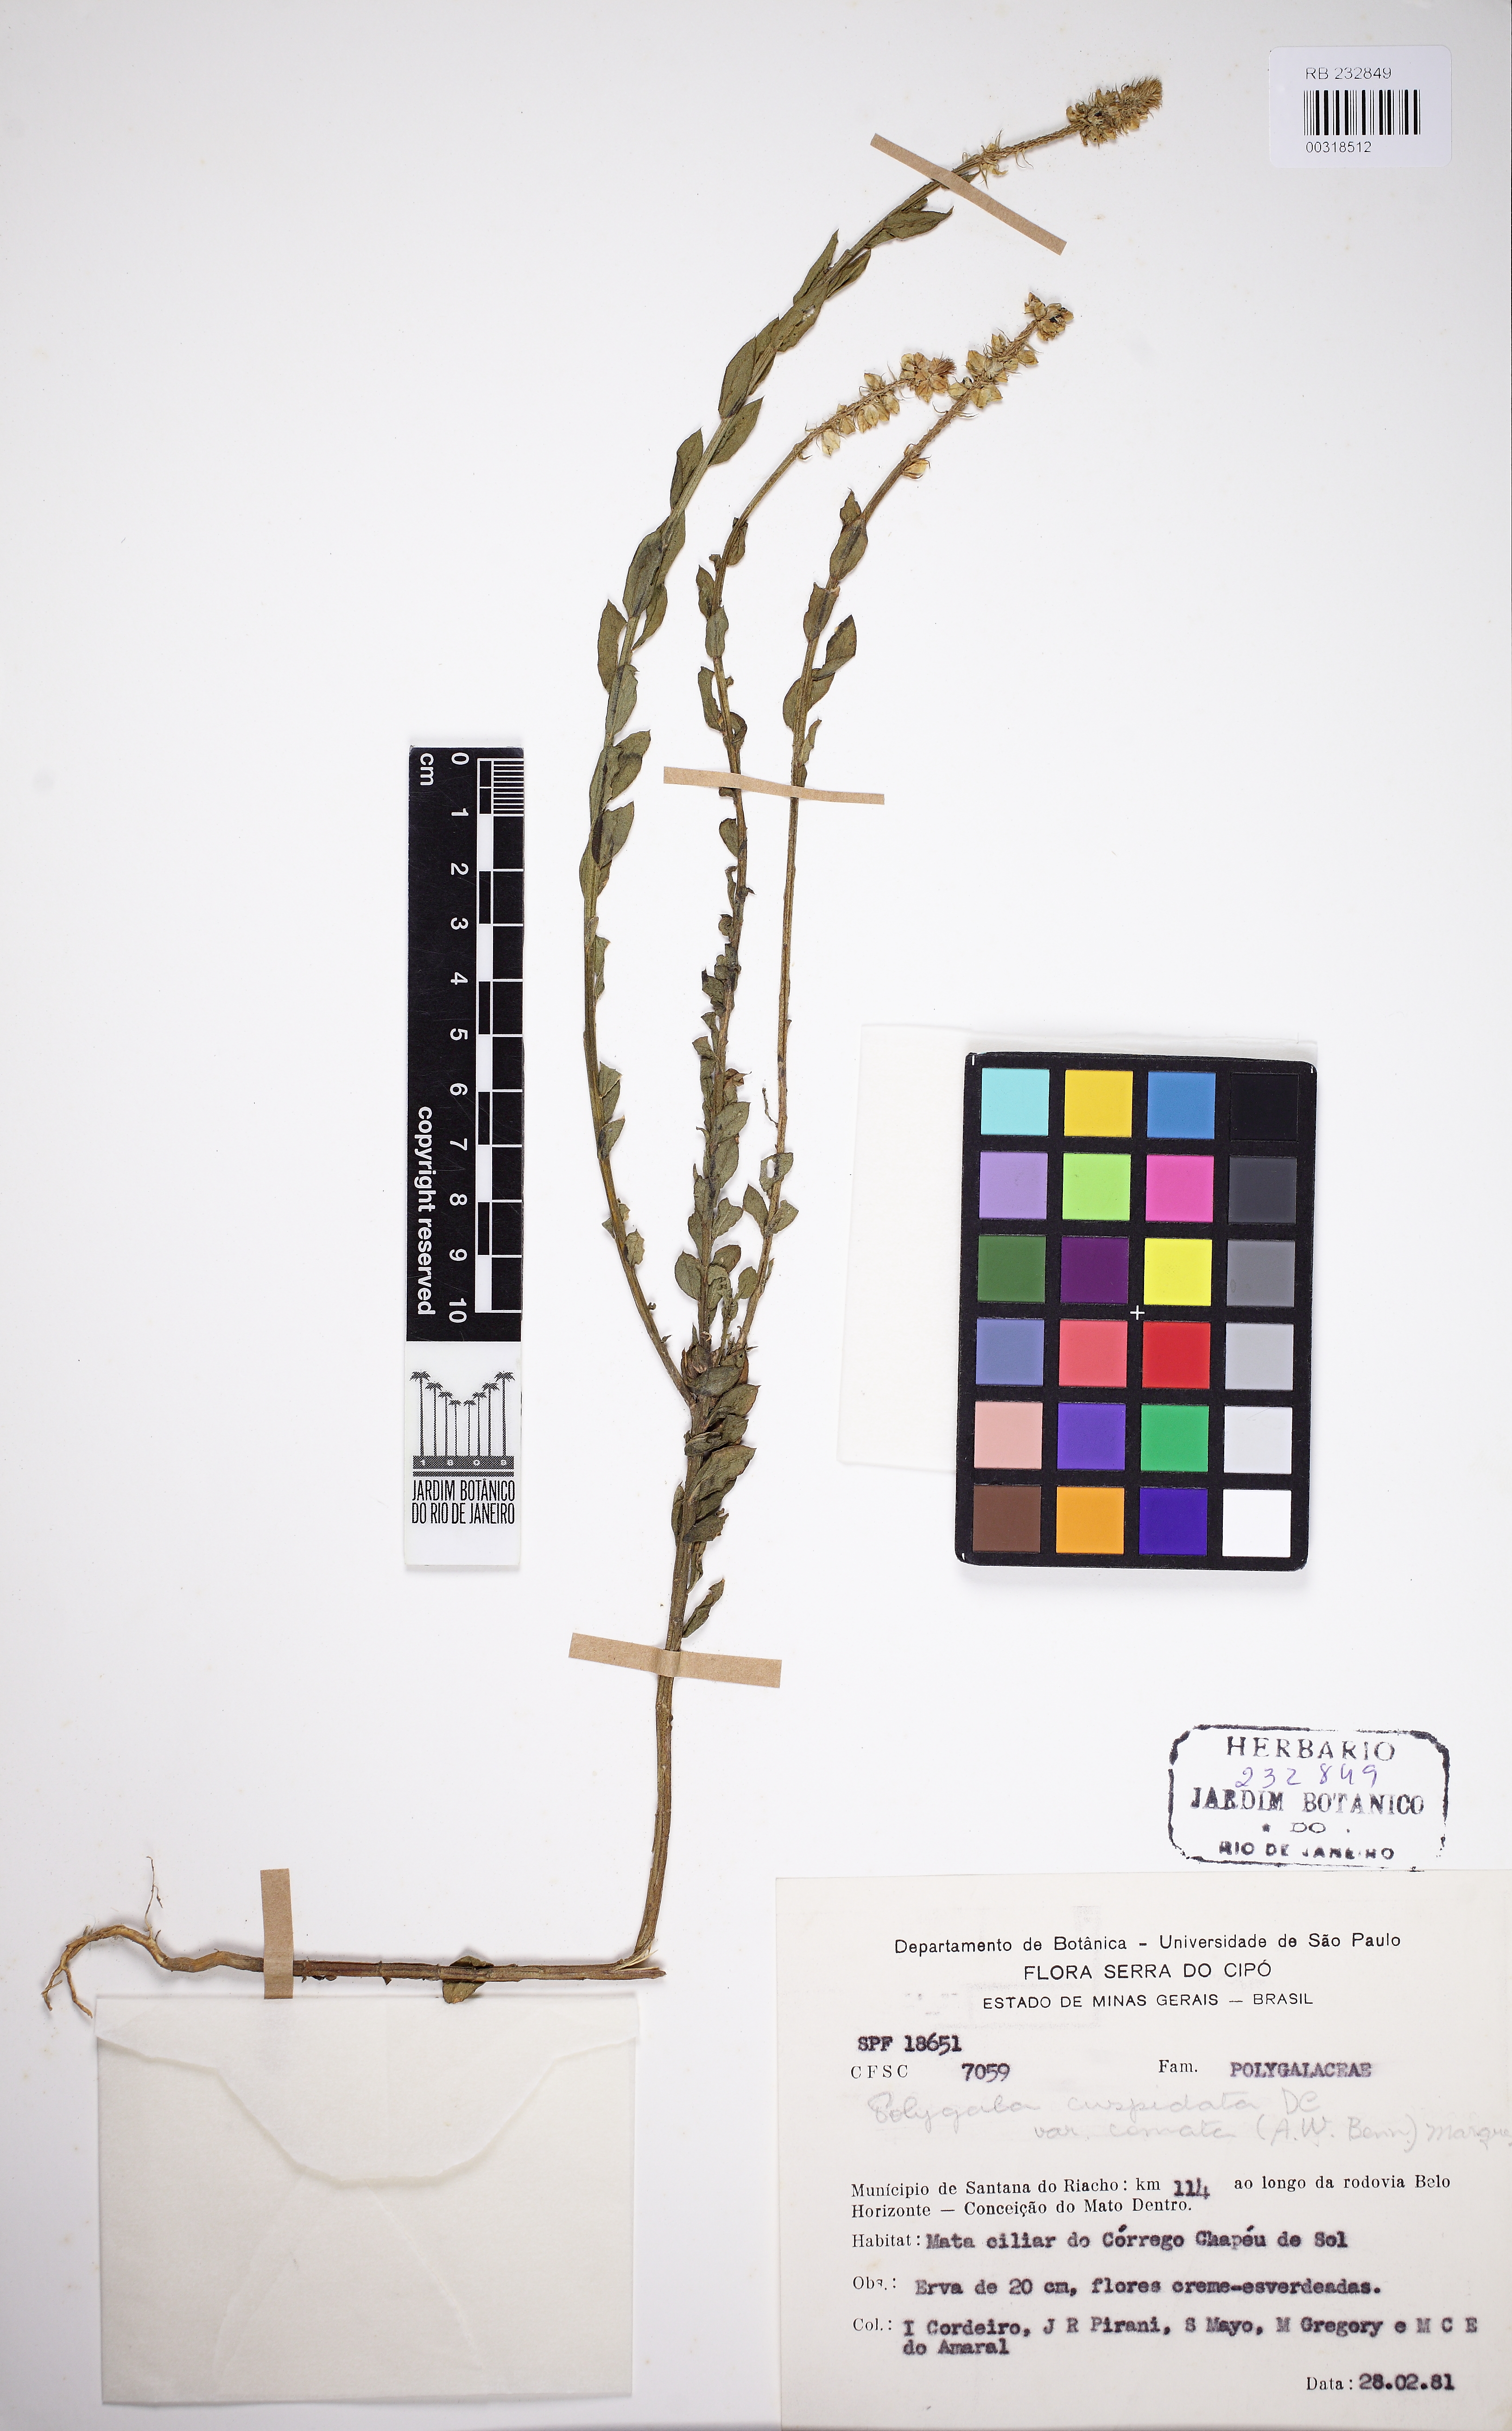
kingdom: Plantae
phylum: Tracheophyta
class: Magnoliopsida
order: Fabales
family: Polygalaceae
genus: Polygala
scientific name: Polygala cuspidata
